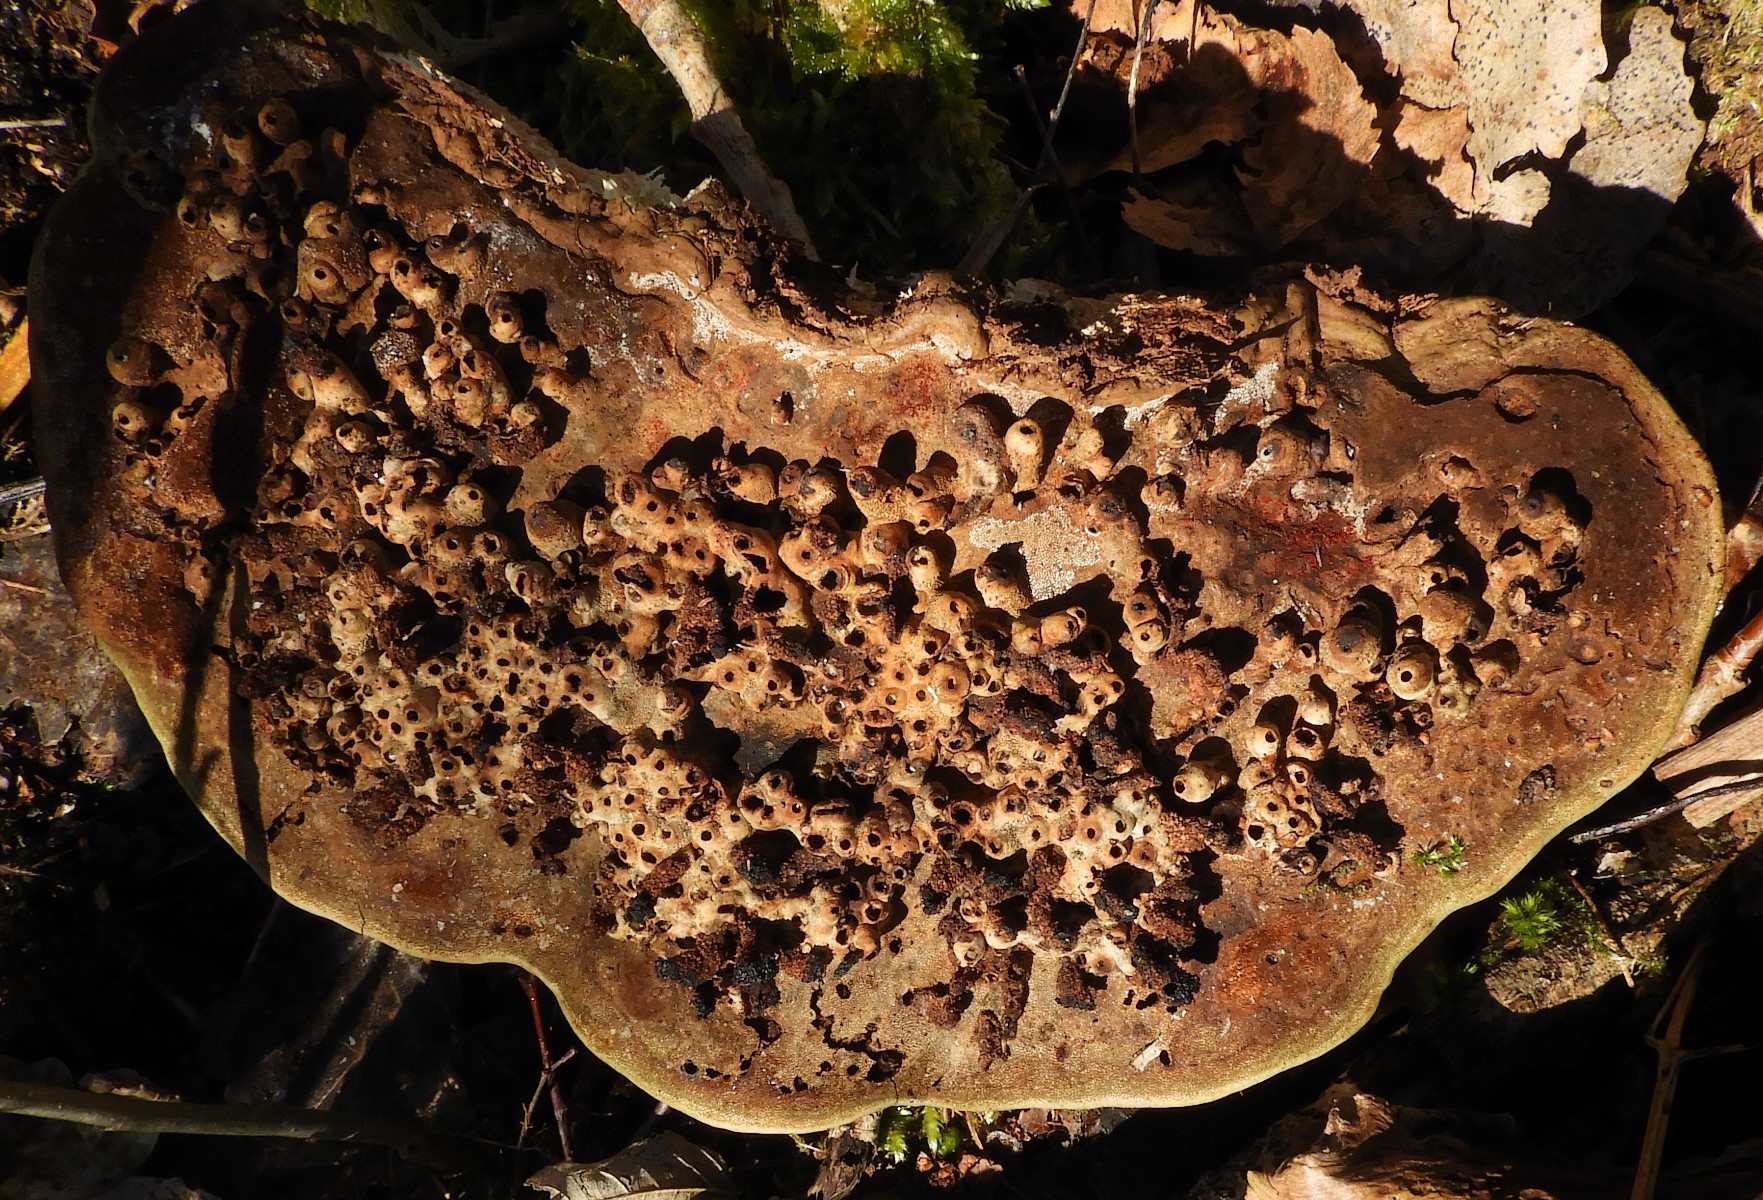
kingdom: Fungi
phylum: Basidiomycota
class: Agaricomycetes
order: Polyporales
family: Polyporaceae
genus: Ganoderma
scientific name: Ganoderma applanatum
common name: flad lakporesvamp
